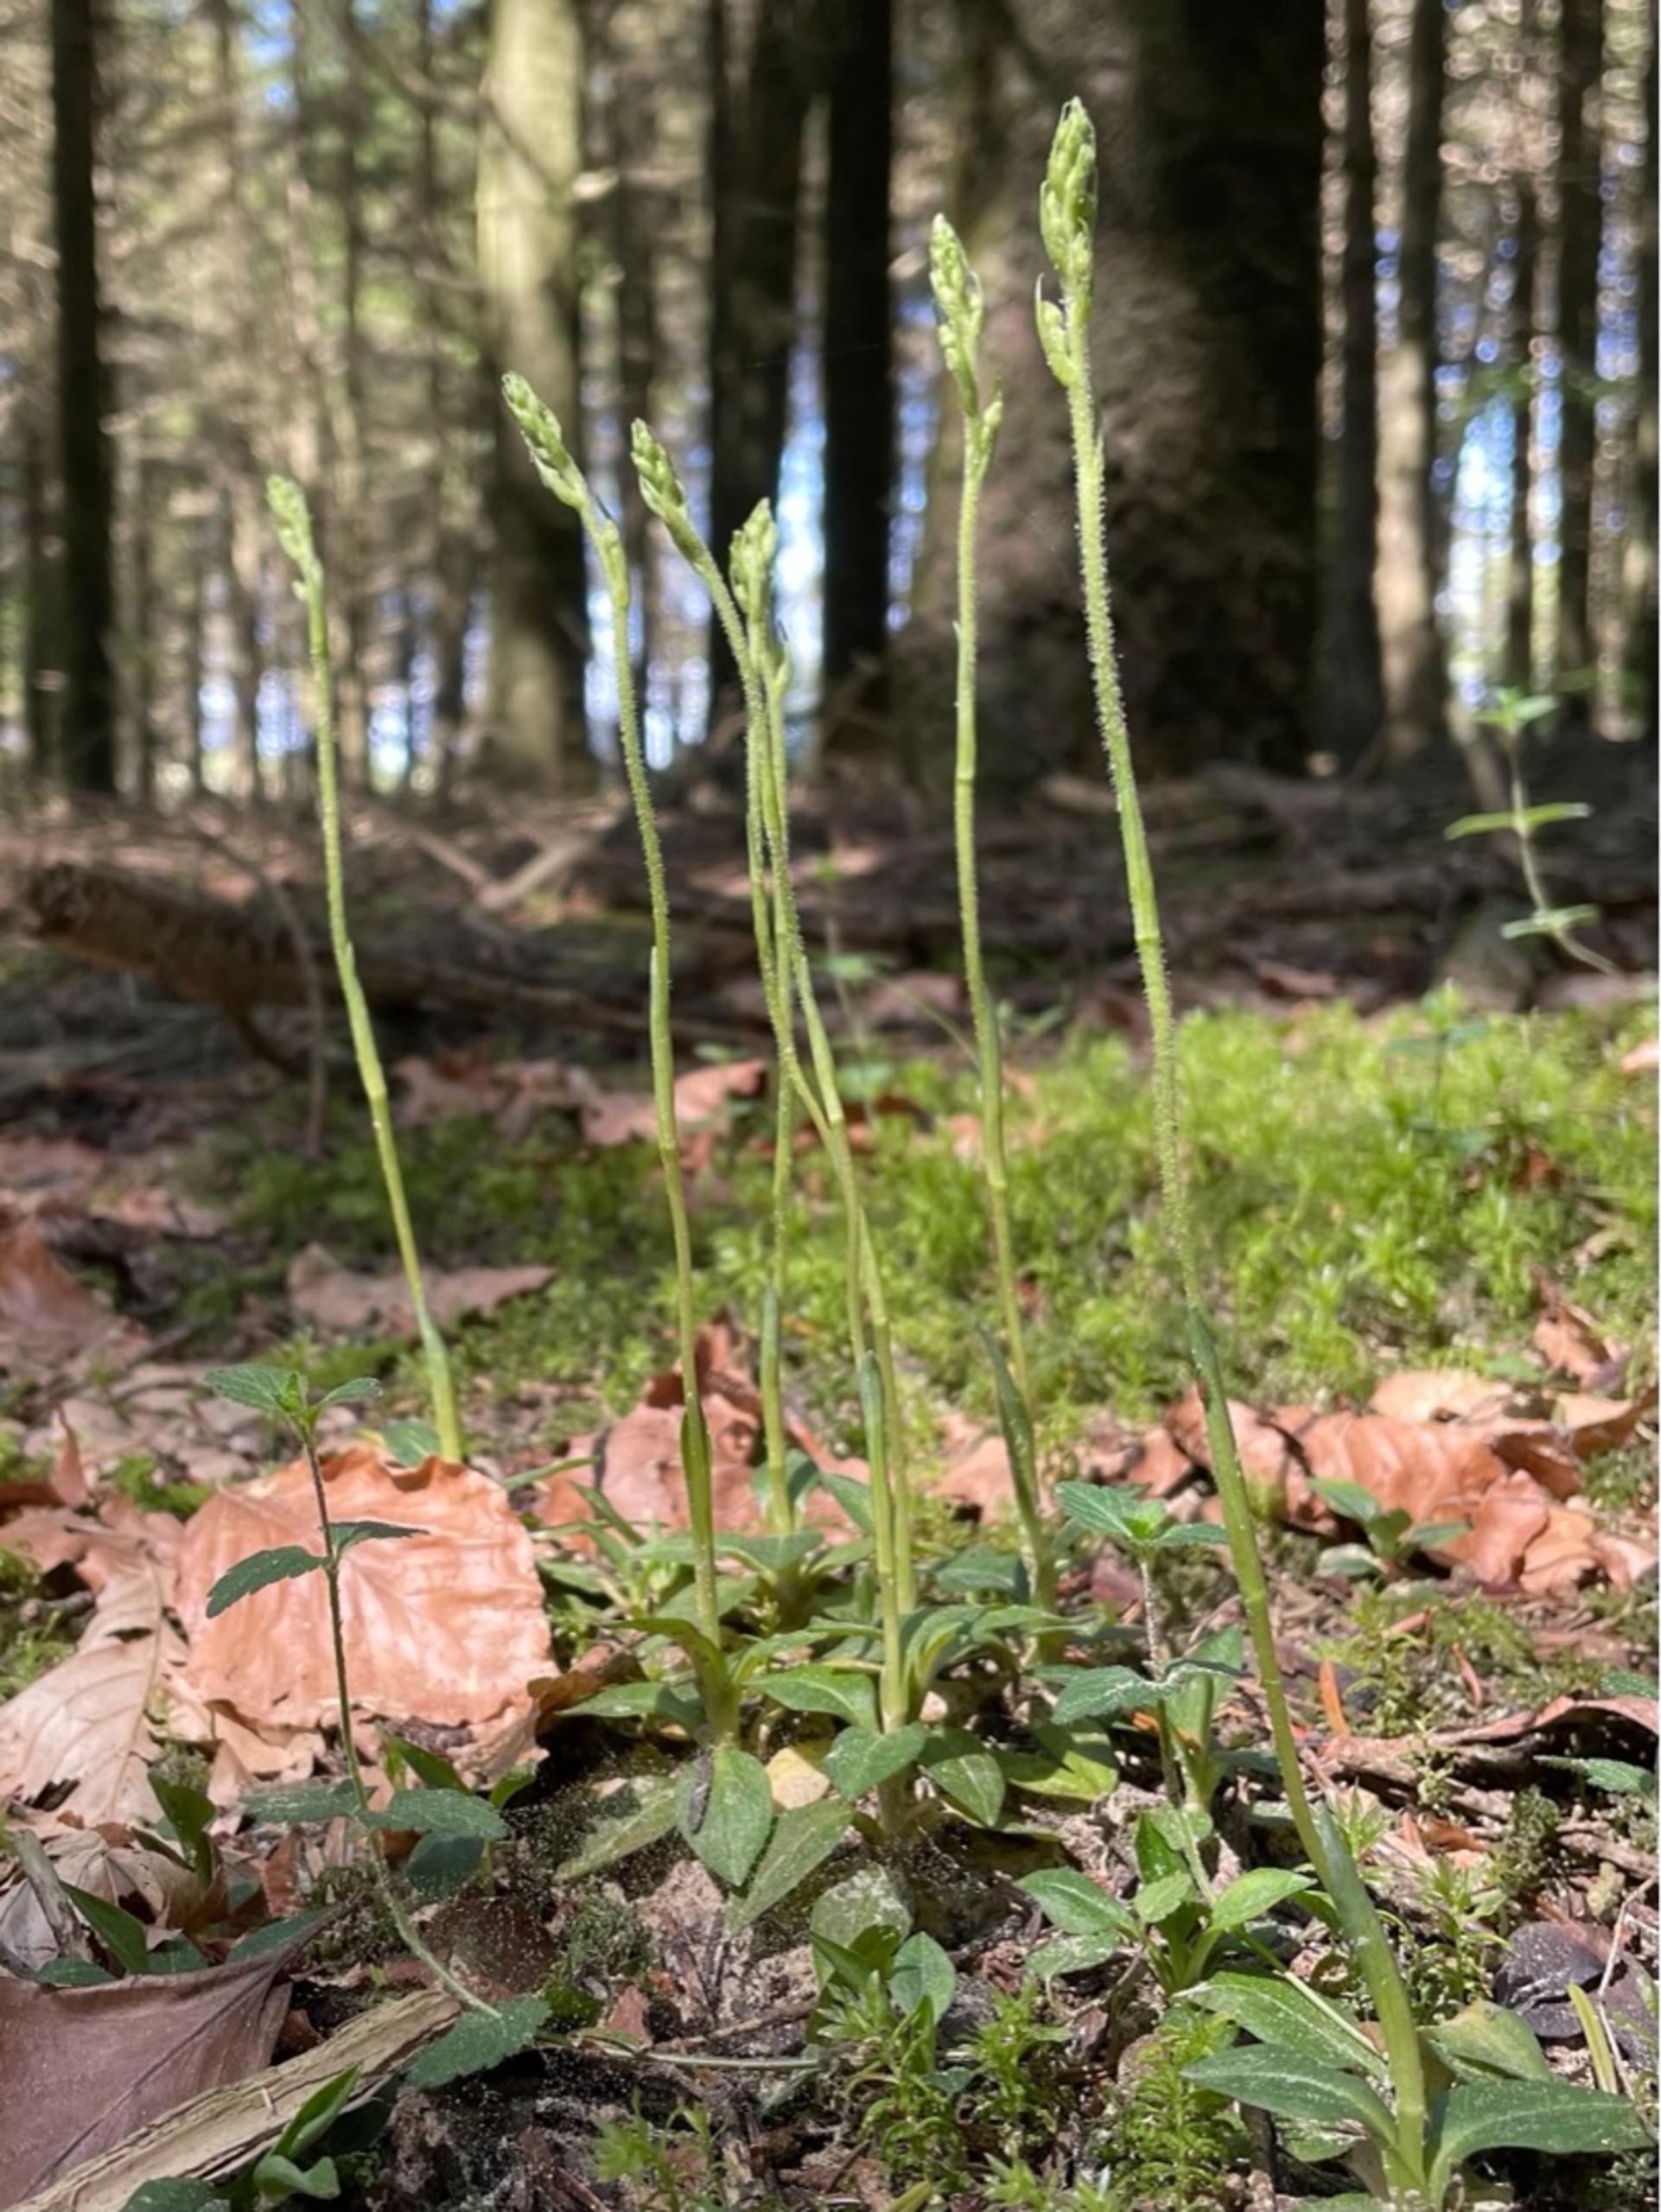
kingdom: Plantae
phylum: Tracheophyta
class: Liliopsida
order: Asparagales
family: Orchidaceae
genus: Goodyera
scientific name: Goodyera repens
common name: Knærod
